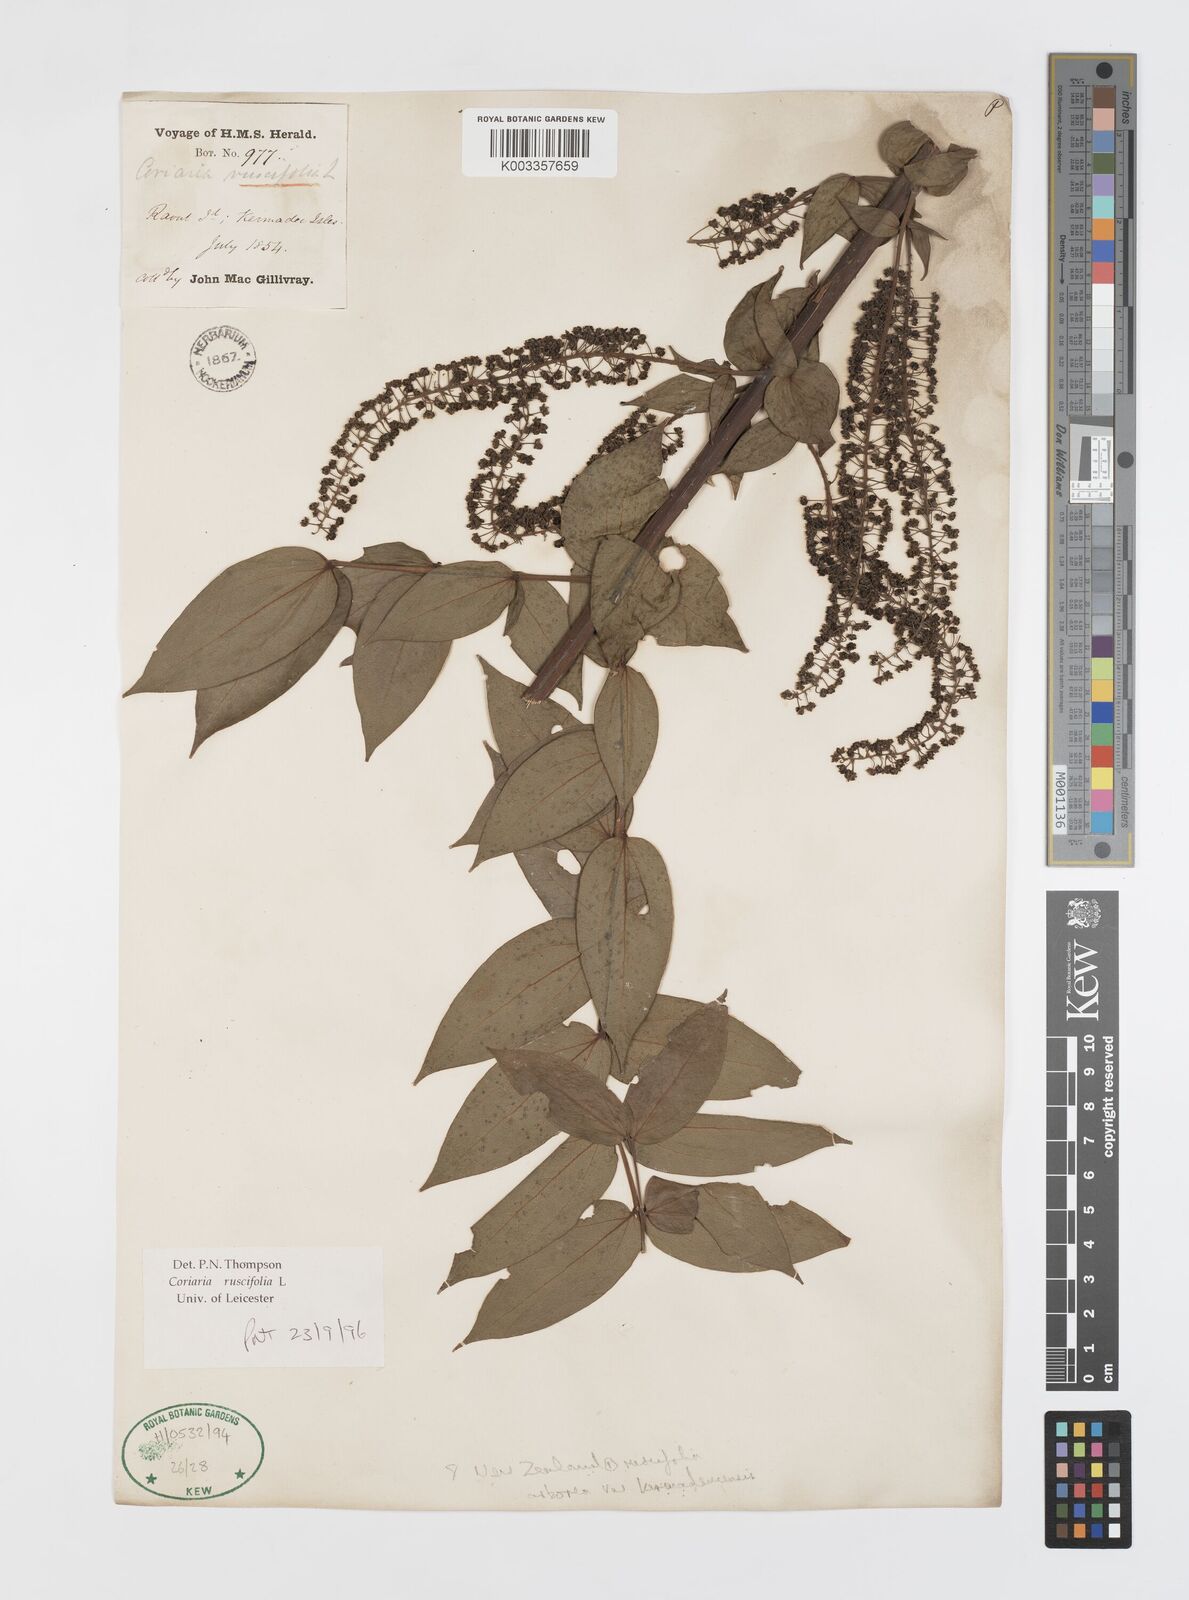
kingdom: Plantae
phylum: Tracheophyta
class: Magnoliopsida
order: Cucurbitales
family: Coriariaceae
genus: Coriaria
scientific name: Coriaria ruscifolia
